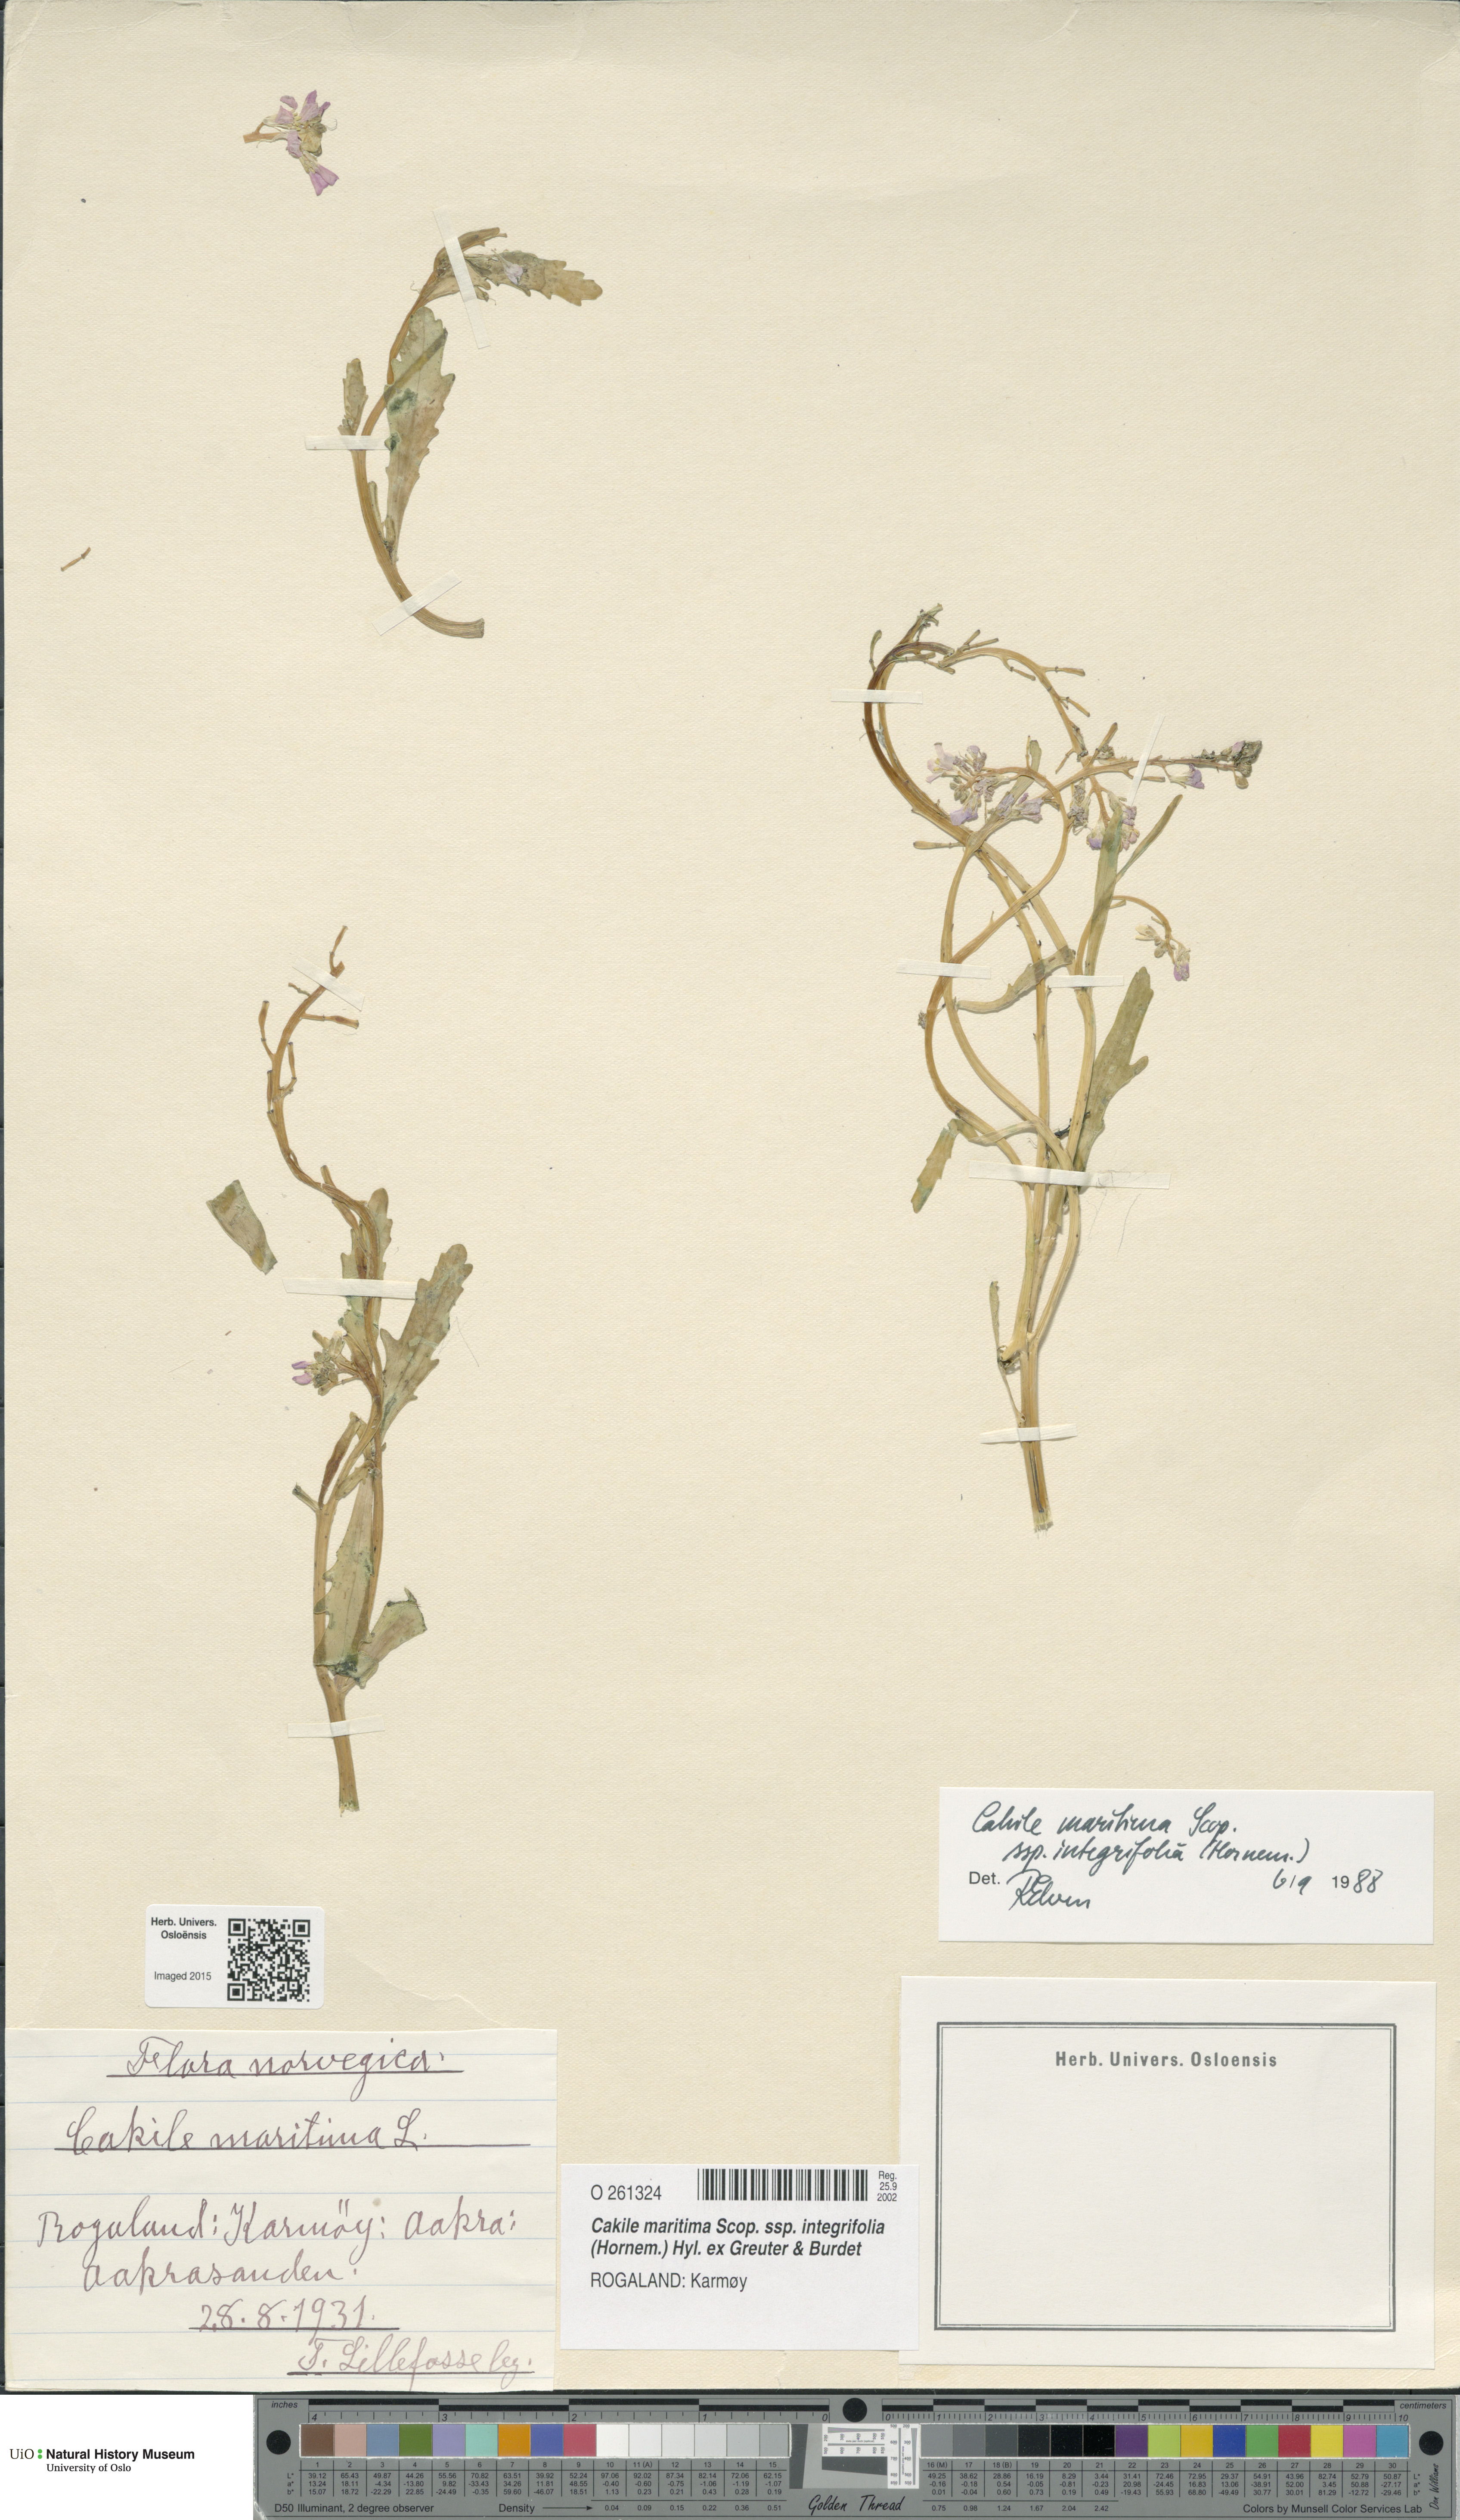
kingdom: Plantae
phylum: Tracheophyta
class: Magnoliopsida
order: Brassicales
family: Brassicaceae
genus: Cakile
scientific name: Cakile maritima
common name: Sea rocket
